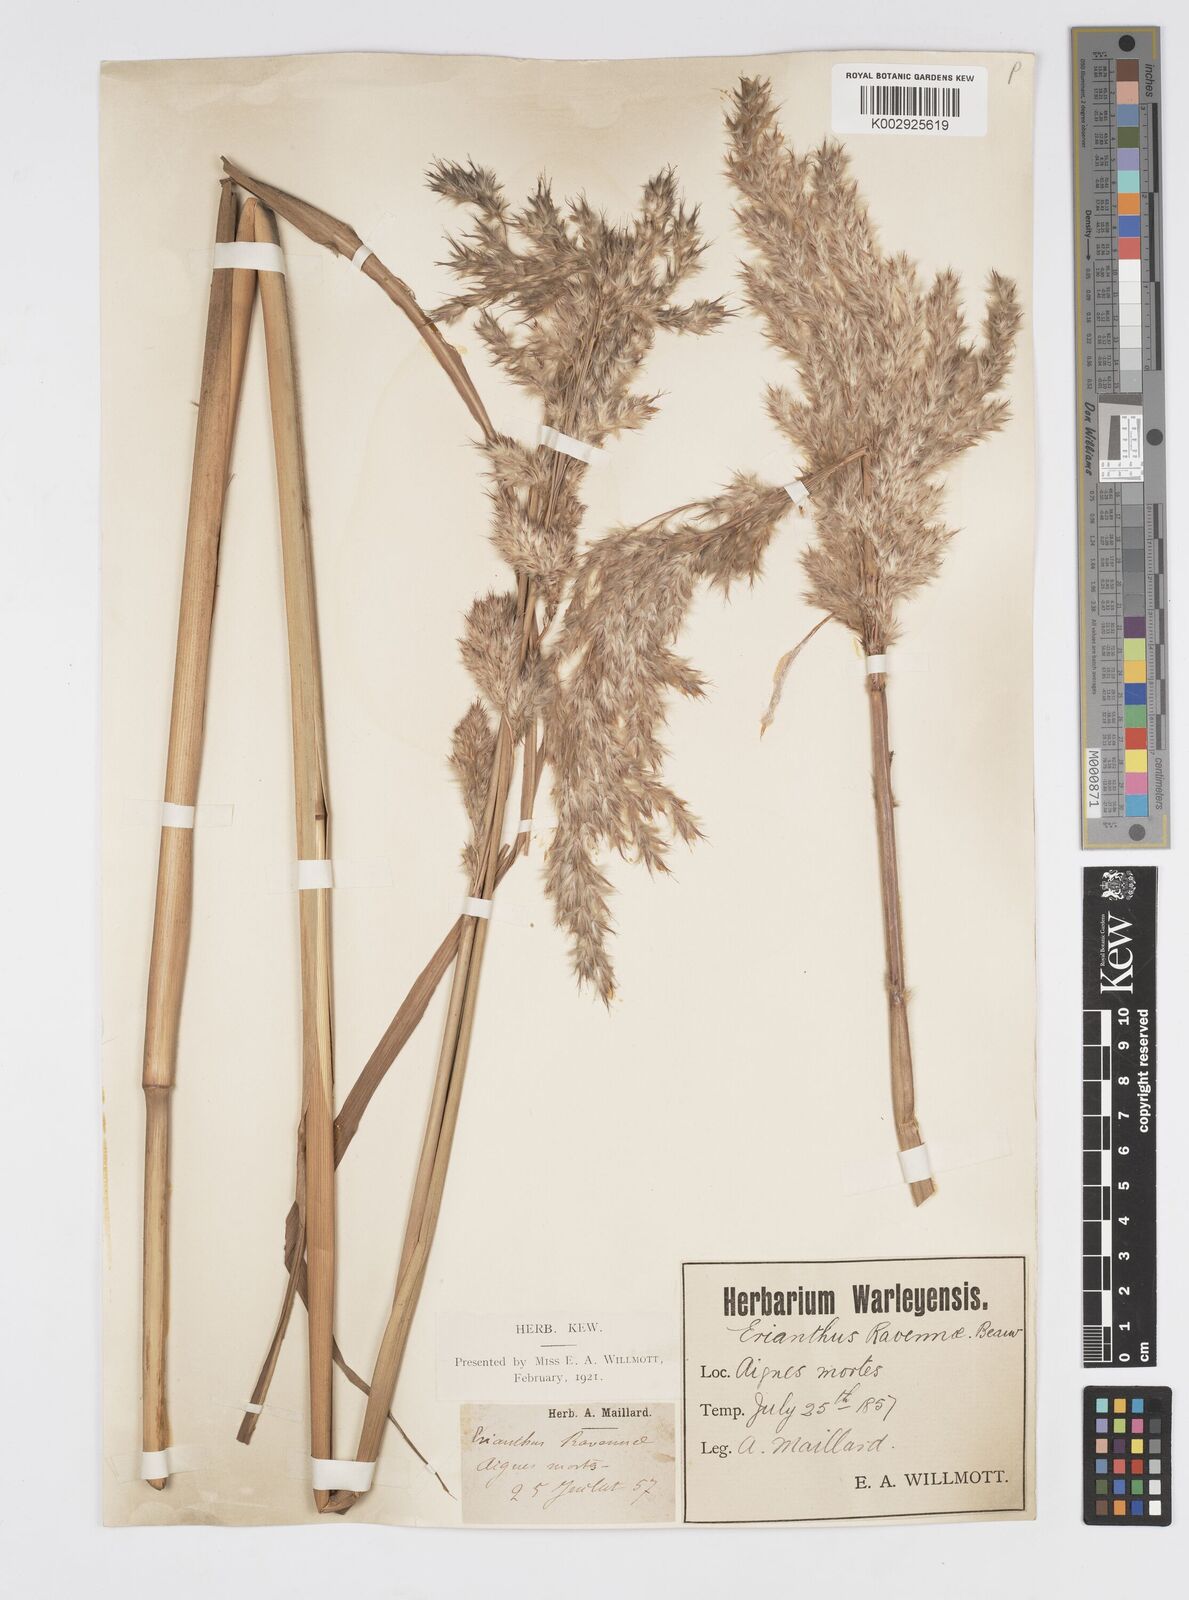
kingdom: Plantae
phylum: Tracheophyta
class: Liliopsida
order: Poales
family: Poaceae
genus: Tripidium
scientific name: Tripidium ravennae
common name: Ravenna grass
